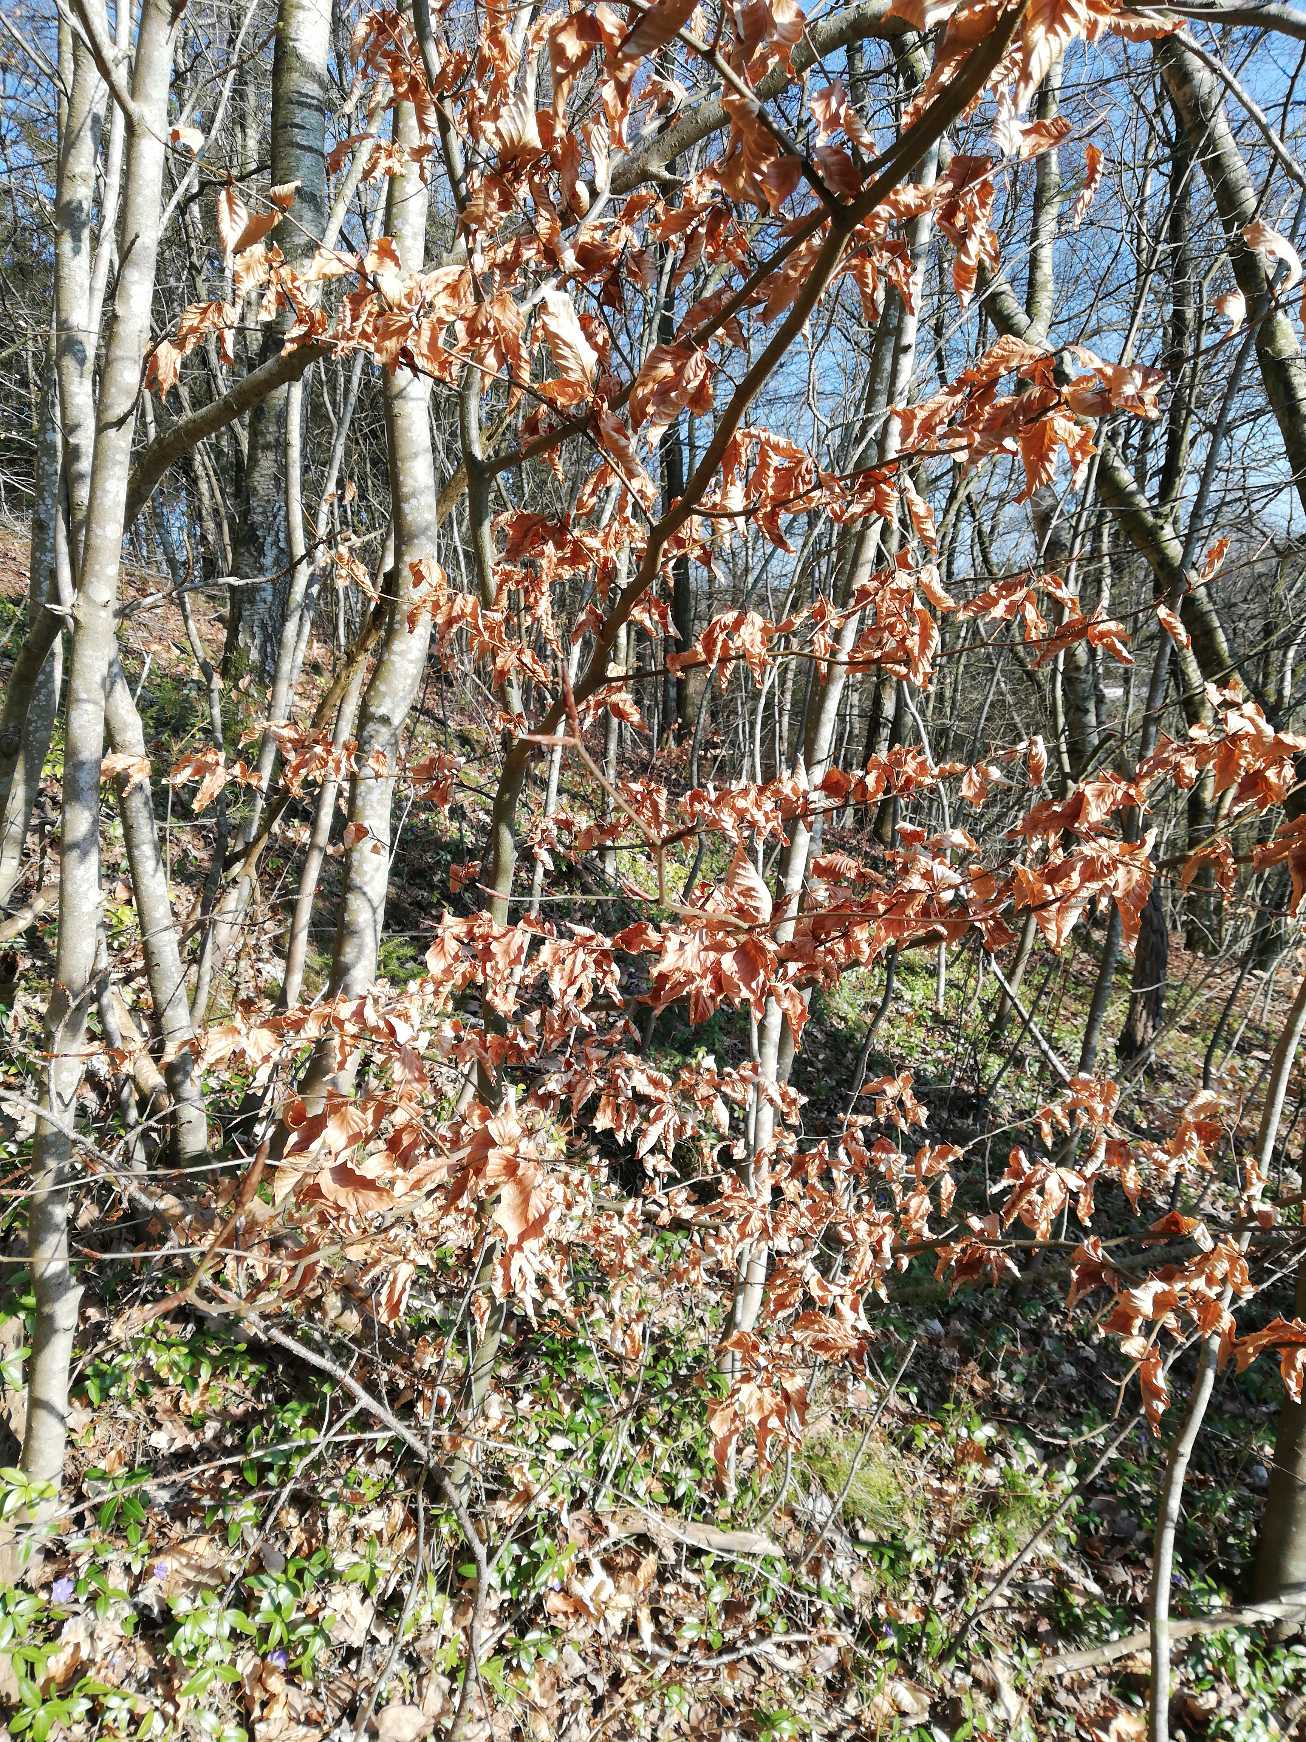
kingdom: Plantae
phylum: Tracheophyta
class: Magnoliopsida
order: Fagales
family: Fagaceae
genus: Fagus
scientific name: Fagus sylvatica
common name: Bøg
